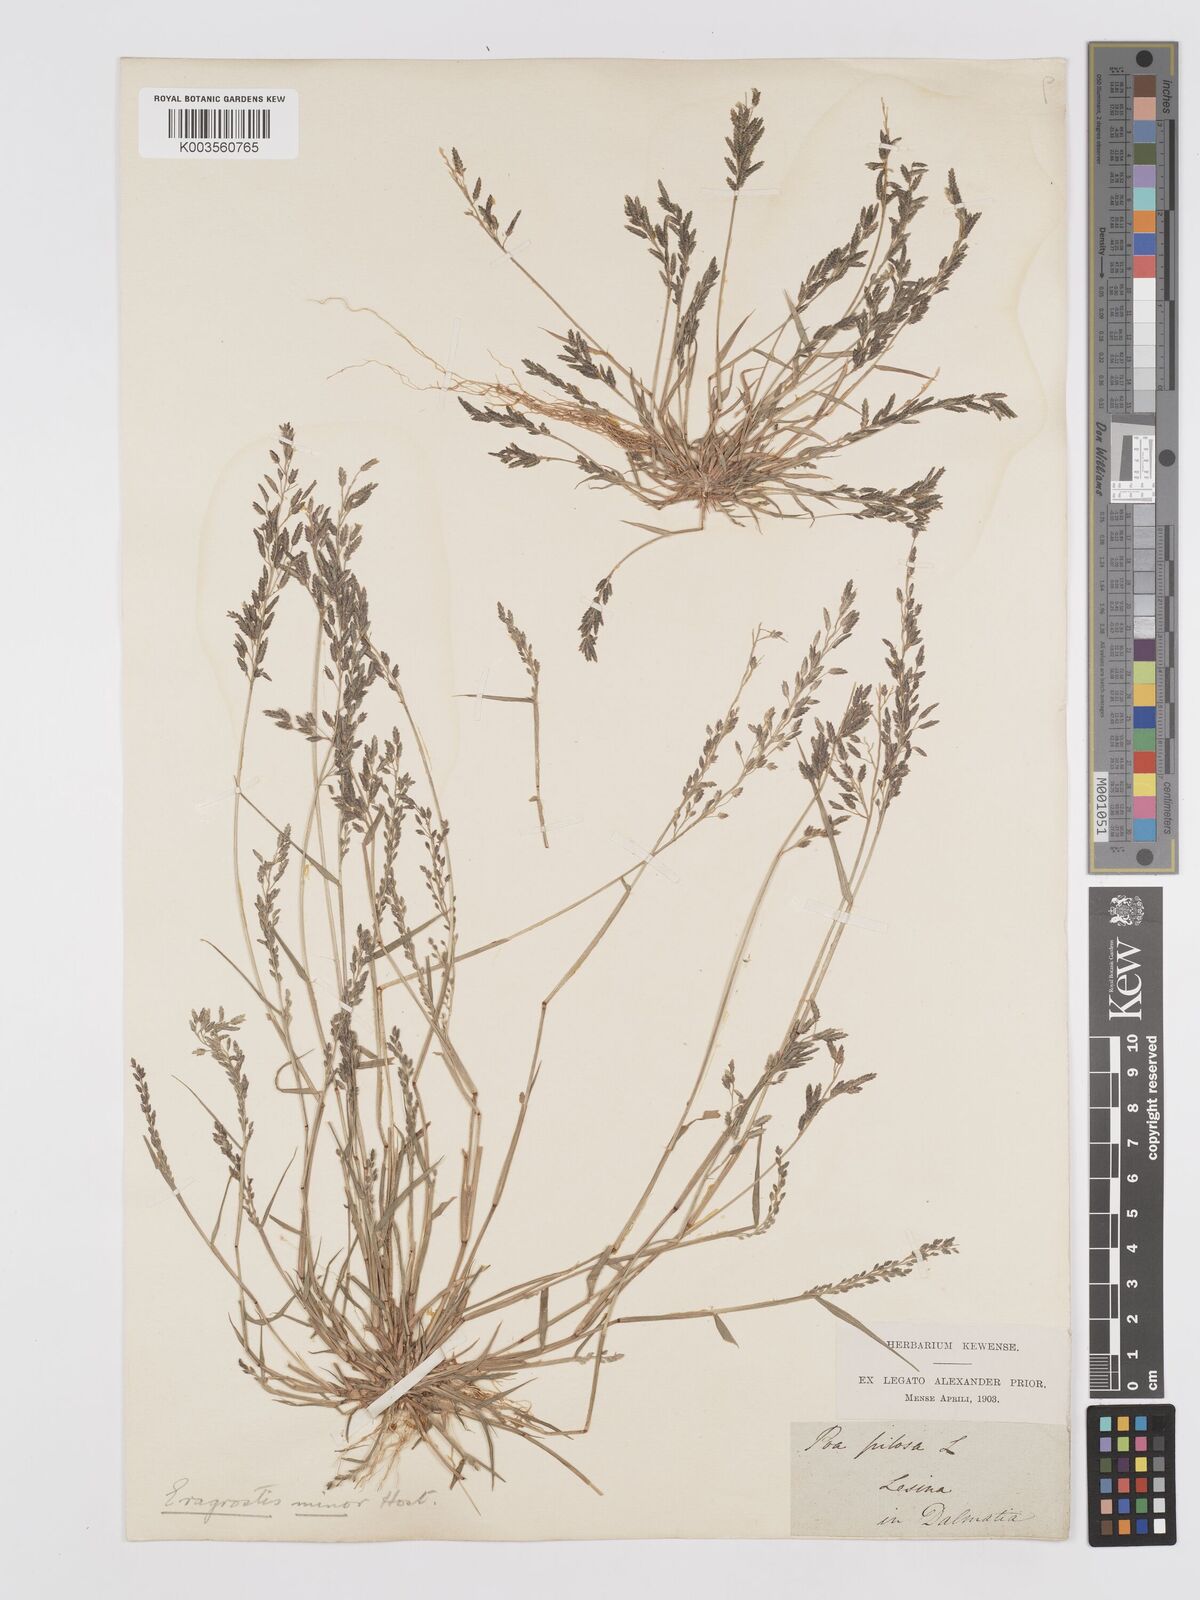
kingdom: Plantae
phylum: Tracheophyta
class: Liliopsida
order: Poales
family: Poaceae
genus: Eragrostis
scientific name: Eragrostis minor
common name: Small love-grass
